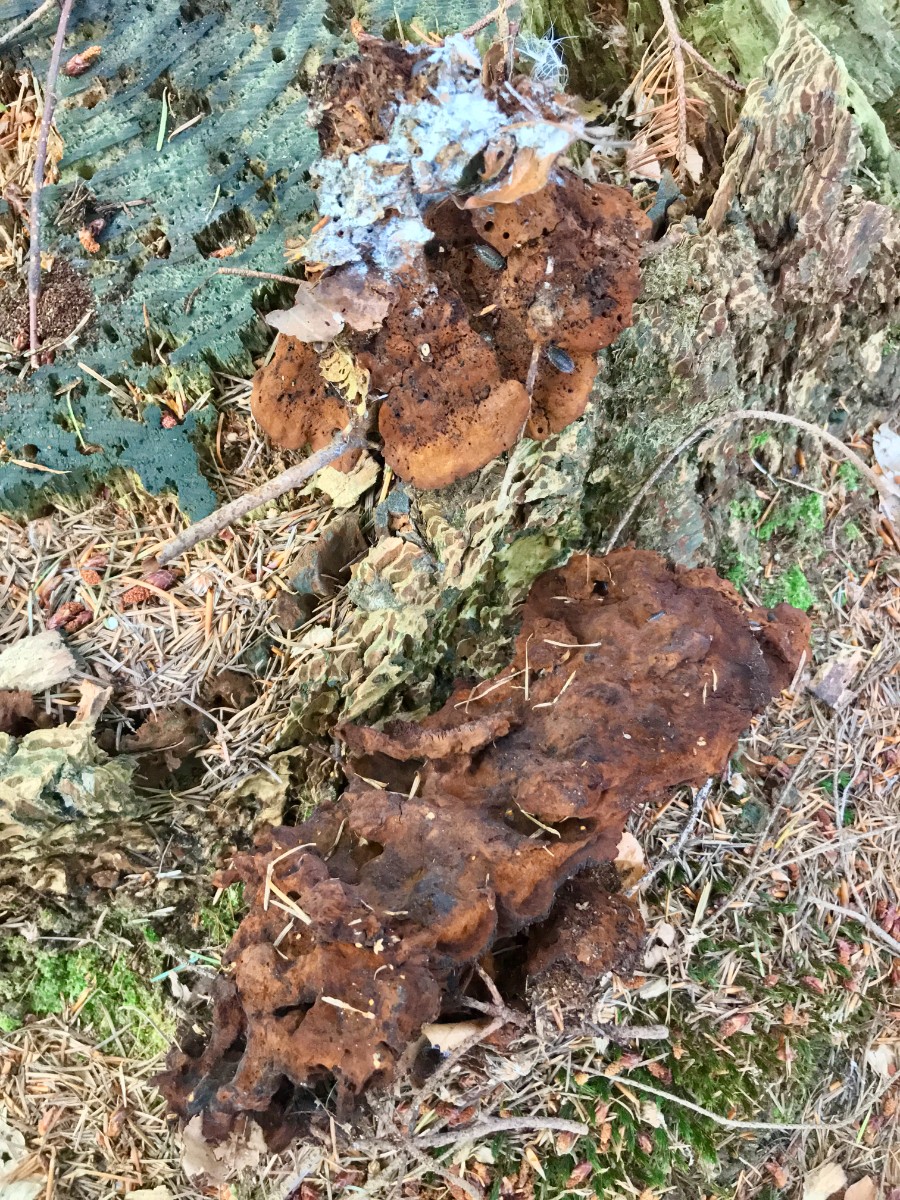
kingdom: Fungi
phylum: Basidiomycota
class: Agaricomycetes
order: Polyporales
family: Laetiporaceae
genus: Phaeolus
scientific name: Phaeolus schweinitzii
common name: brunporesvamp
